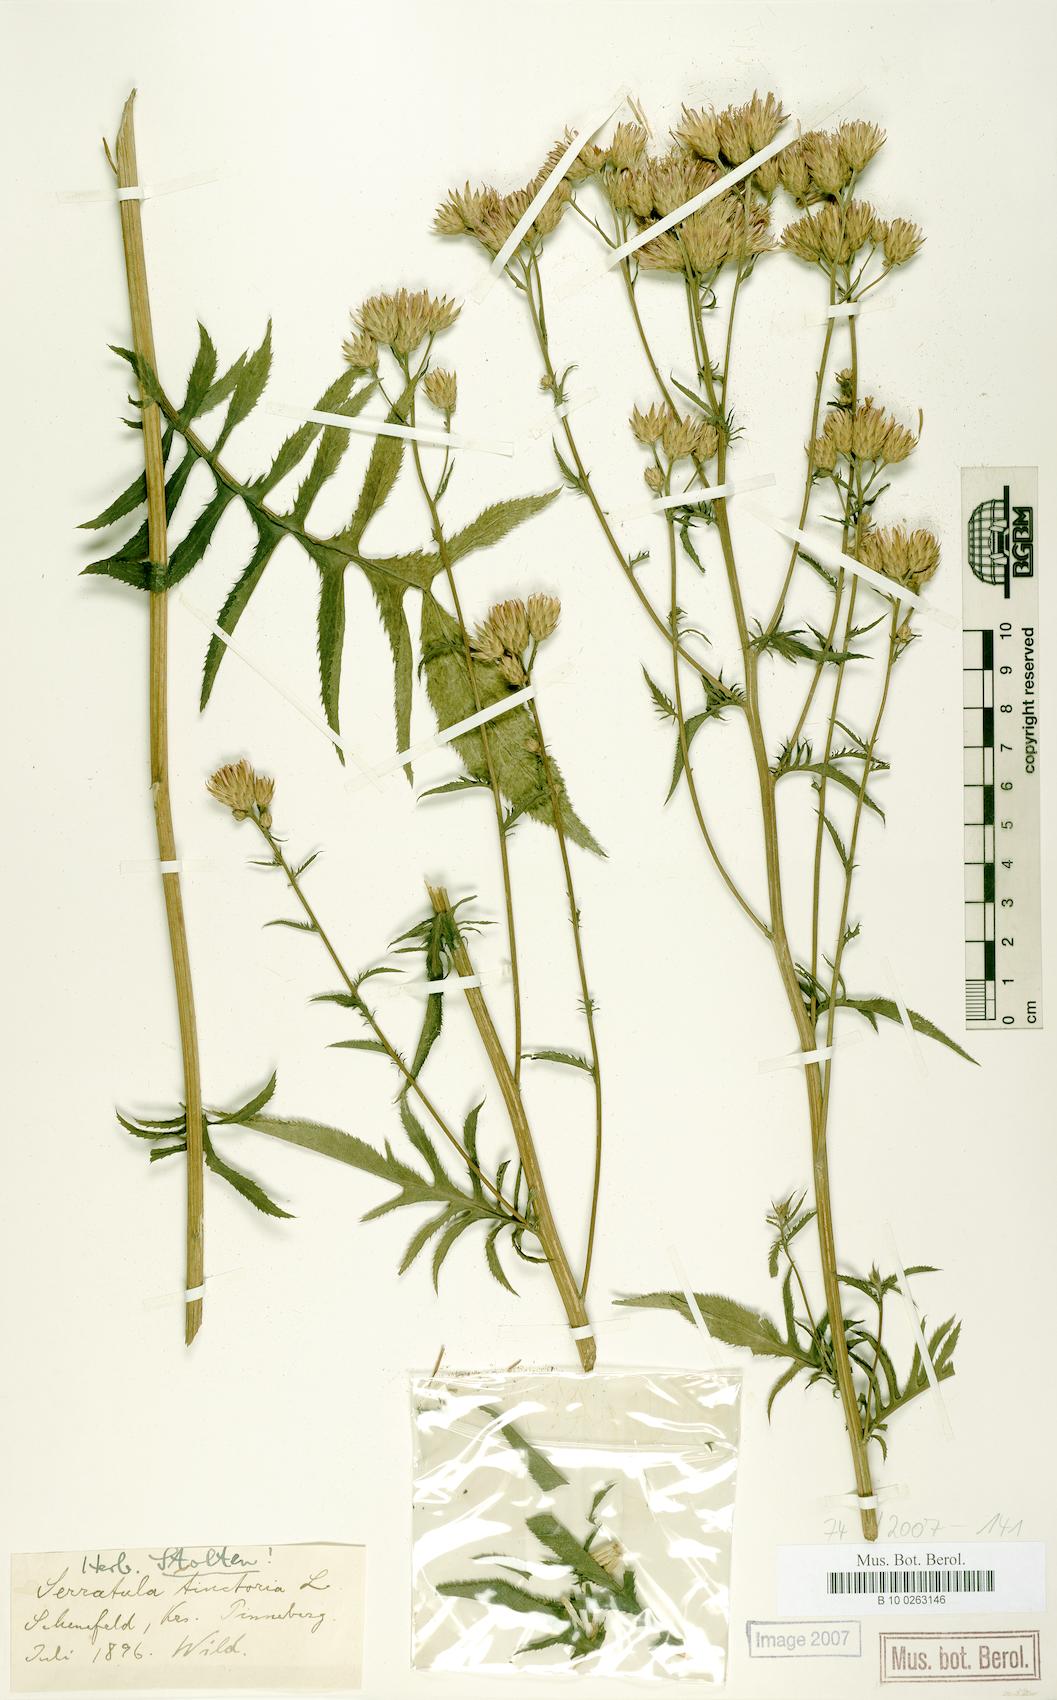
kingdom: Plantae
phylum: Tracheophyta
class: Magnoliopsida
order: Asterales
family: Asteraceae
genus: Serratula
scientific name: Serratula tinctoria
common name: Saw-wort
